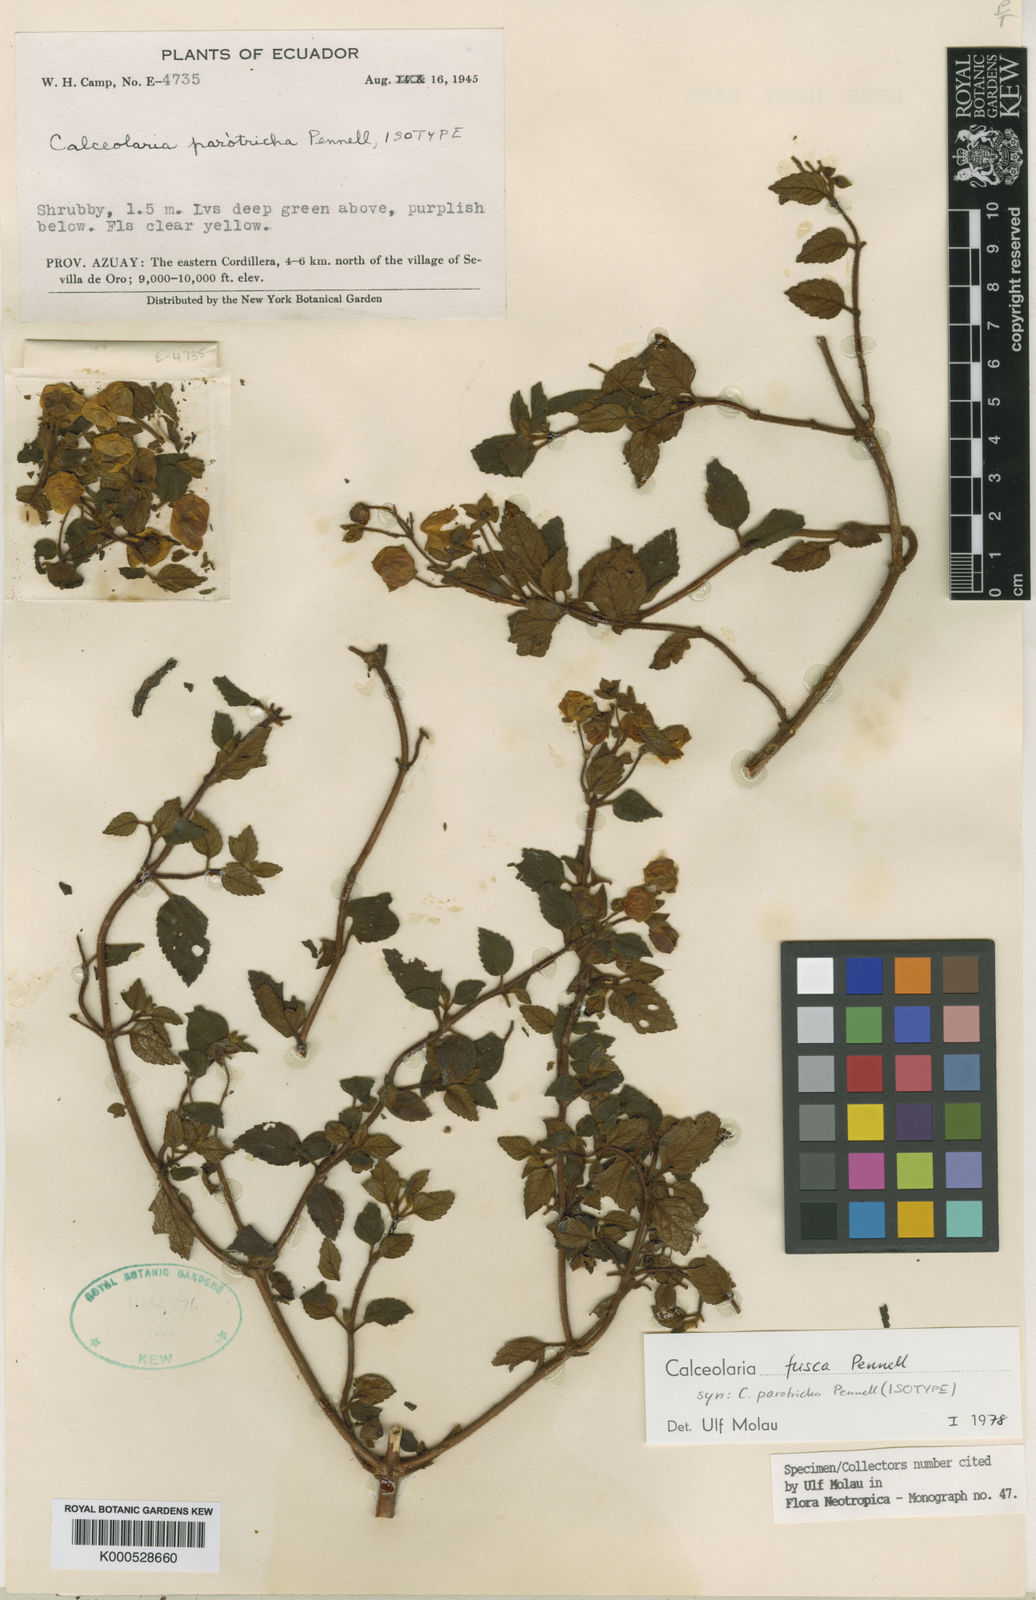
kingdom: Plantae
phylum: Tracheophyta
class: Magnoliopsida
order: Lamiales
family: Calceolariaceae
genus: Calceolaria
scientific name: Calceolaria fusca
